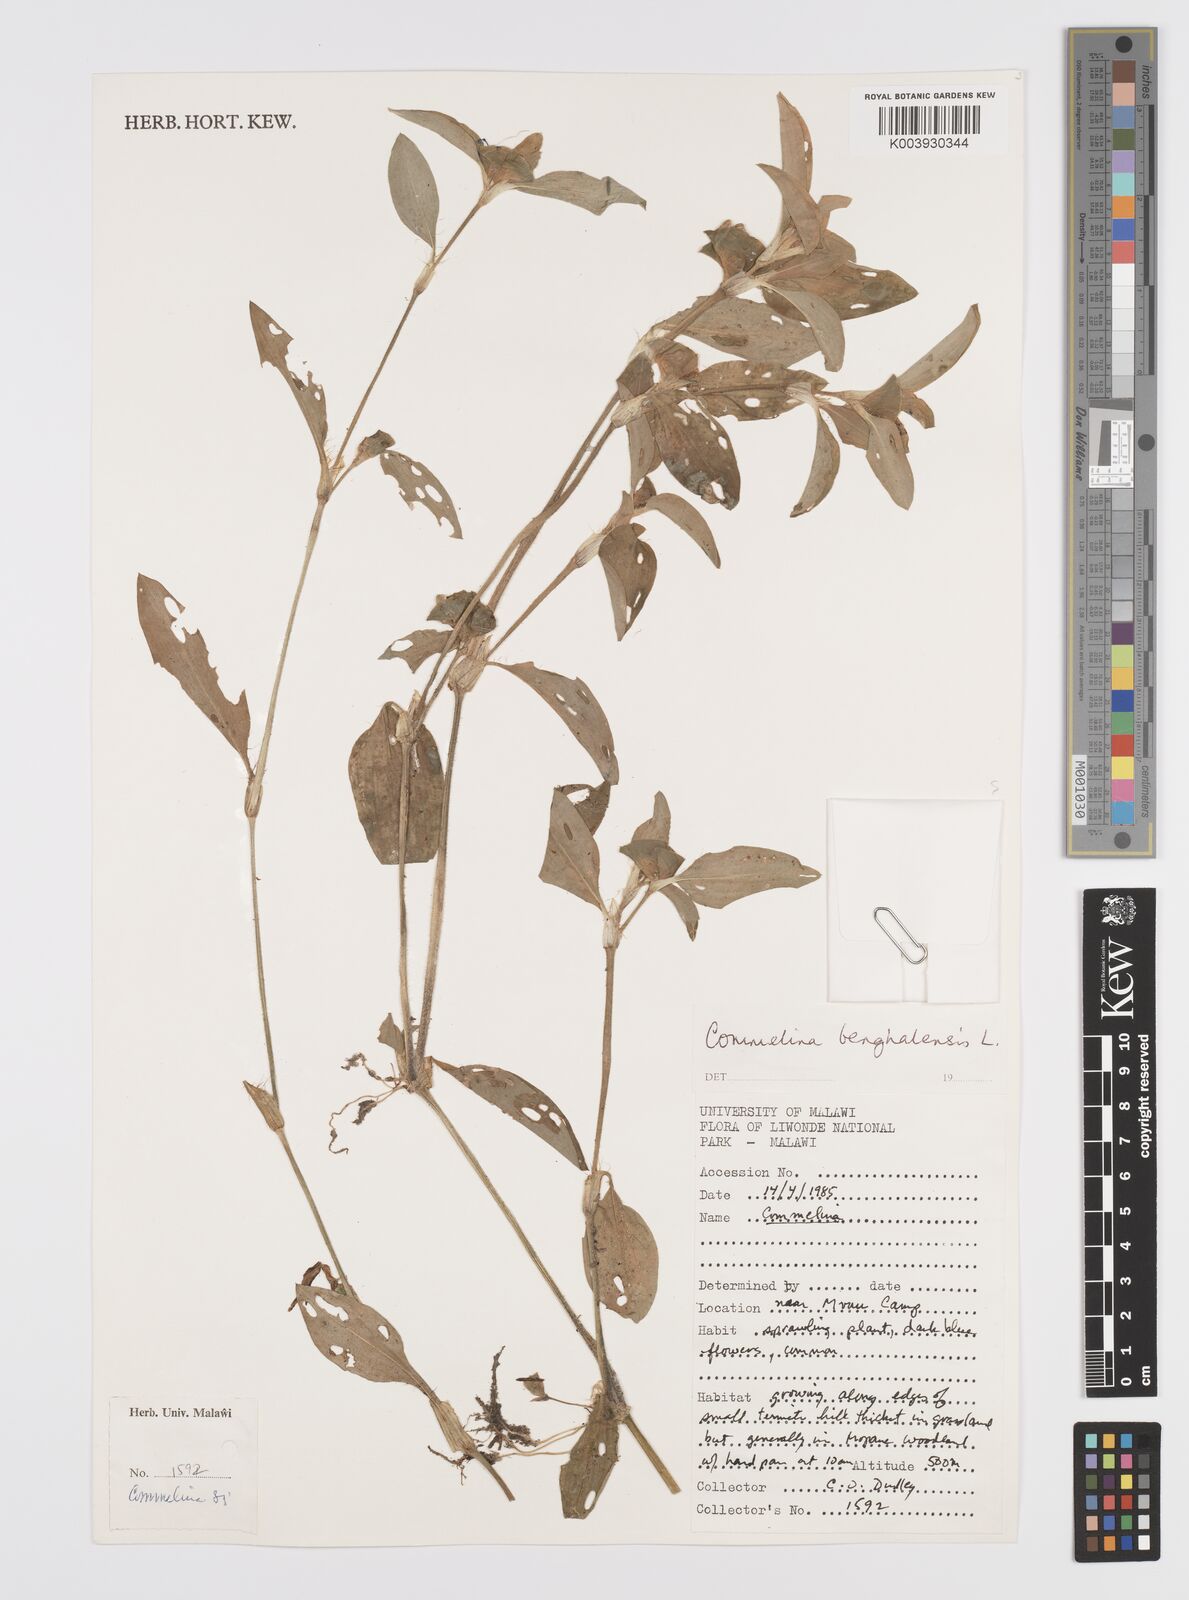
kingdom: Plantae
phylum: Tracheophyta
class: Liliopsida
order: Commelinales
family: Commelinaceae
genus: Commelina
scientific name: Commelina benghalensis
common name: Jio
